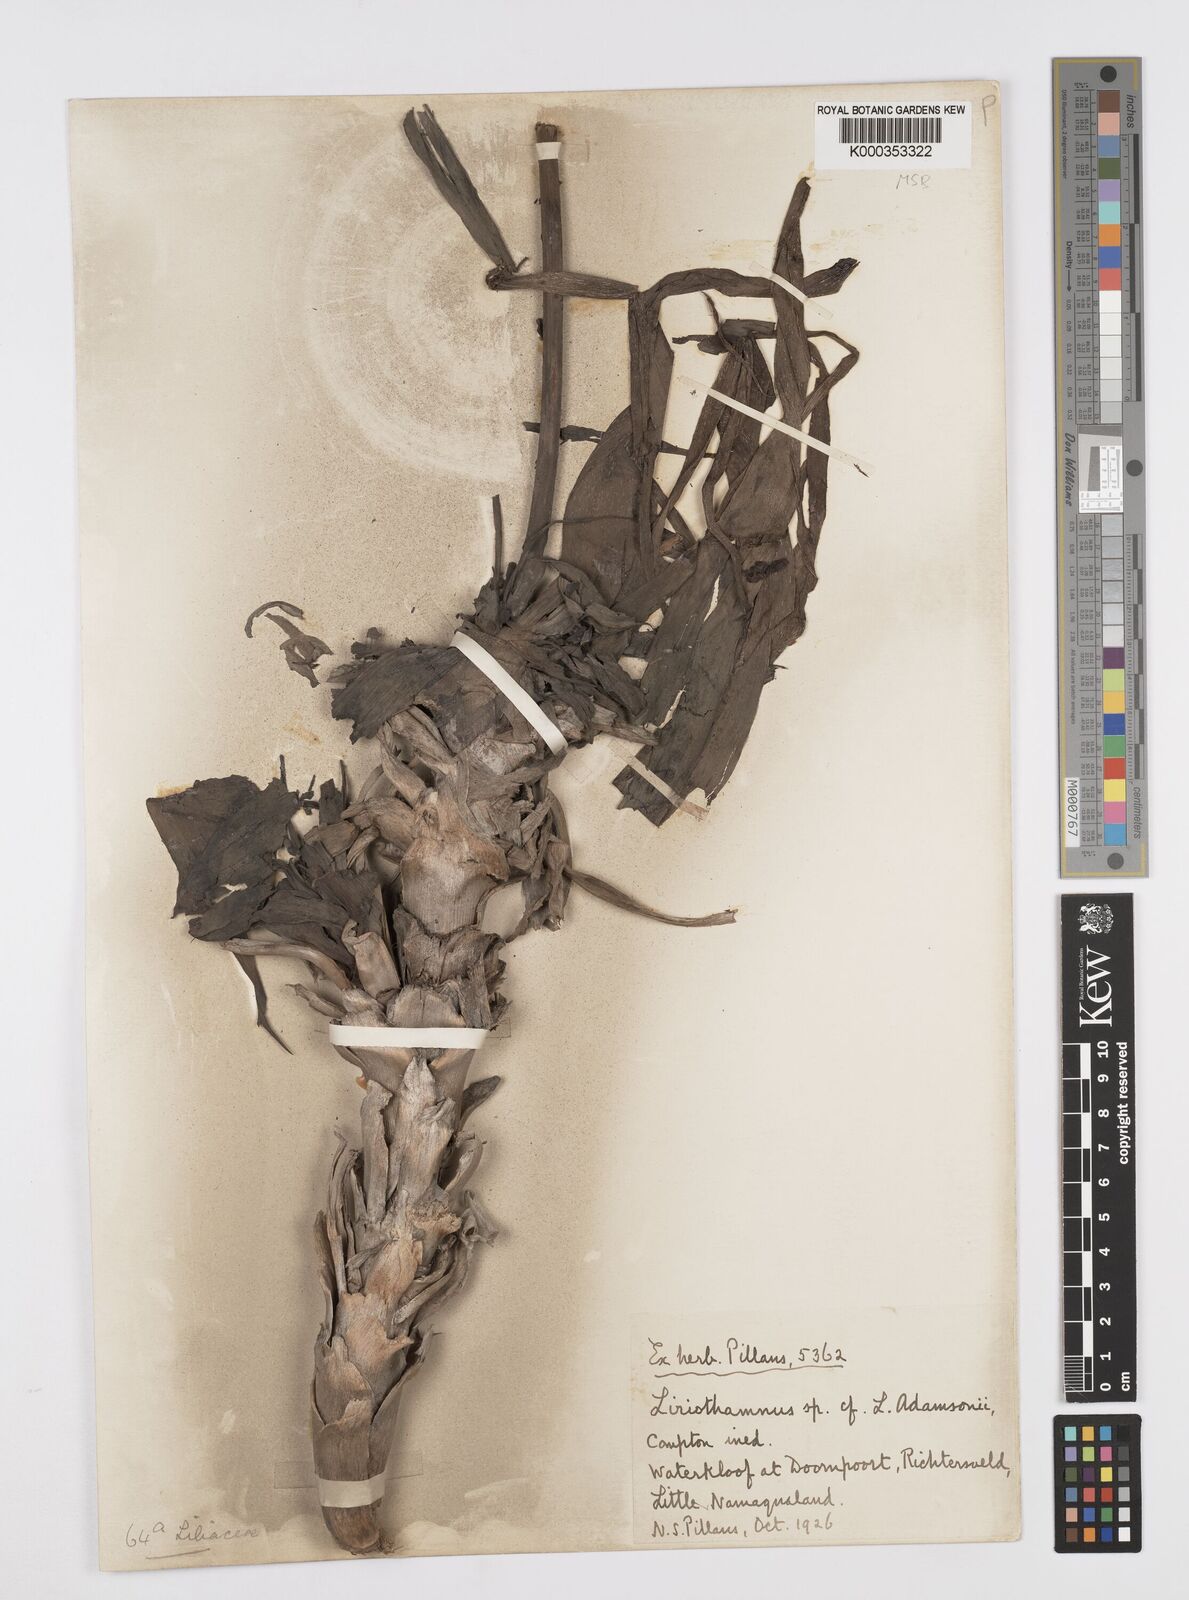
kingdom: Plantae
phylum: Tracheophyta
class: Liliopsida
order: Asparagales
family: Asphodelaceae
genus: Trachyandra
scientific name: Trachyandra adamsonii
